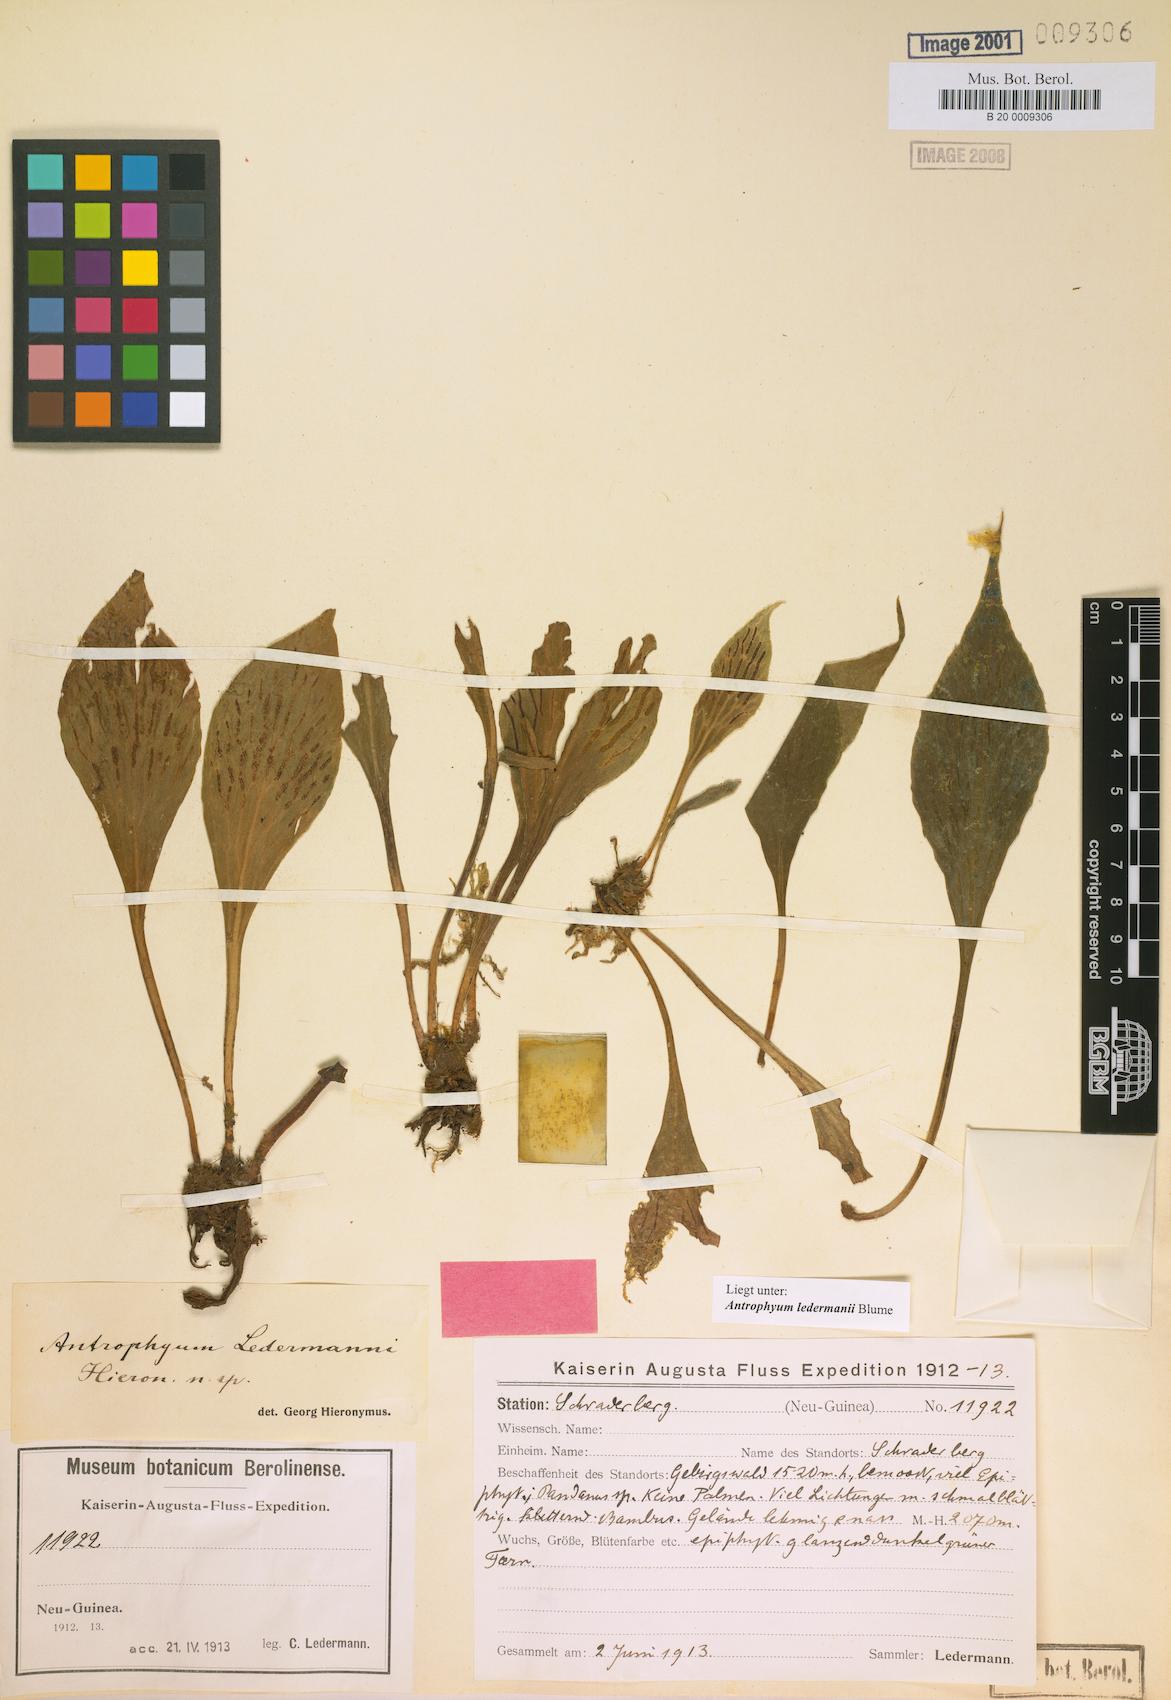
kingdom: Plantae
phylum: Tracheophyta
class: Polypodiopsida
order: Polypodiales
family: Pteridaceae
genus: Antrophyum
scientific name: Antrophyum ledermannii
